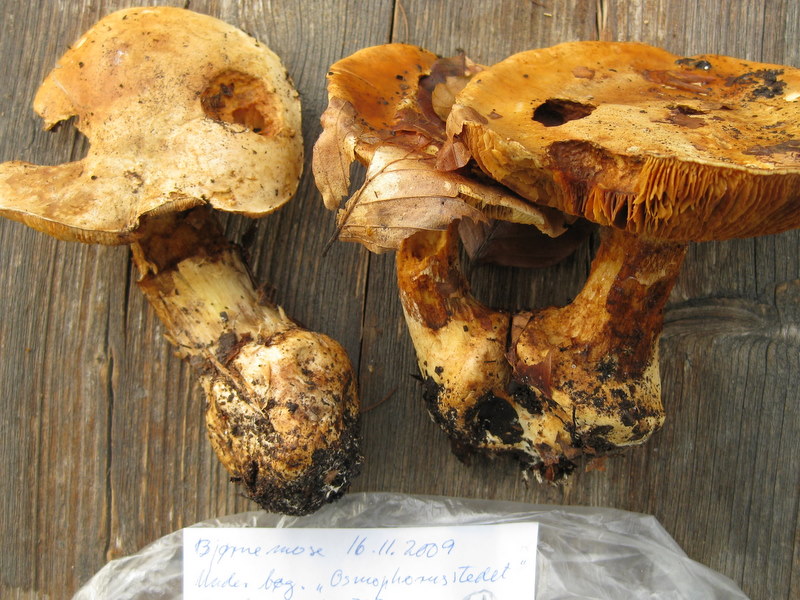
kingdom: Fungi
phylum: Basidiomycota
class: Agaricomycetes
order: Agaricales
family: Cortinariaceae
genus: Calonarius
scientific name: Calonarius alcalinophilus
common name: gyldenbrun slørhat
